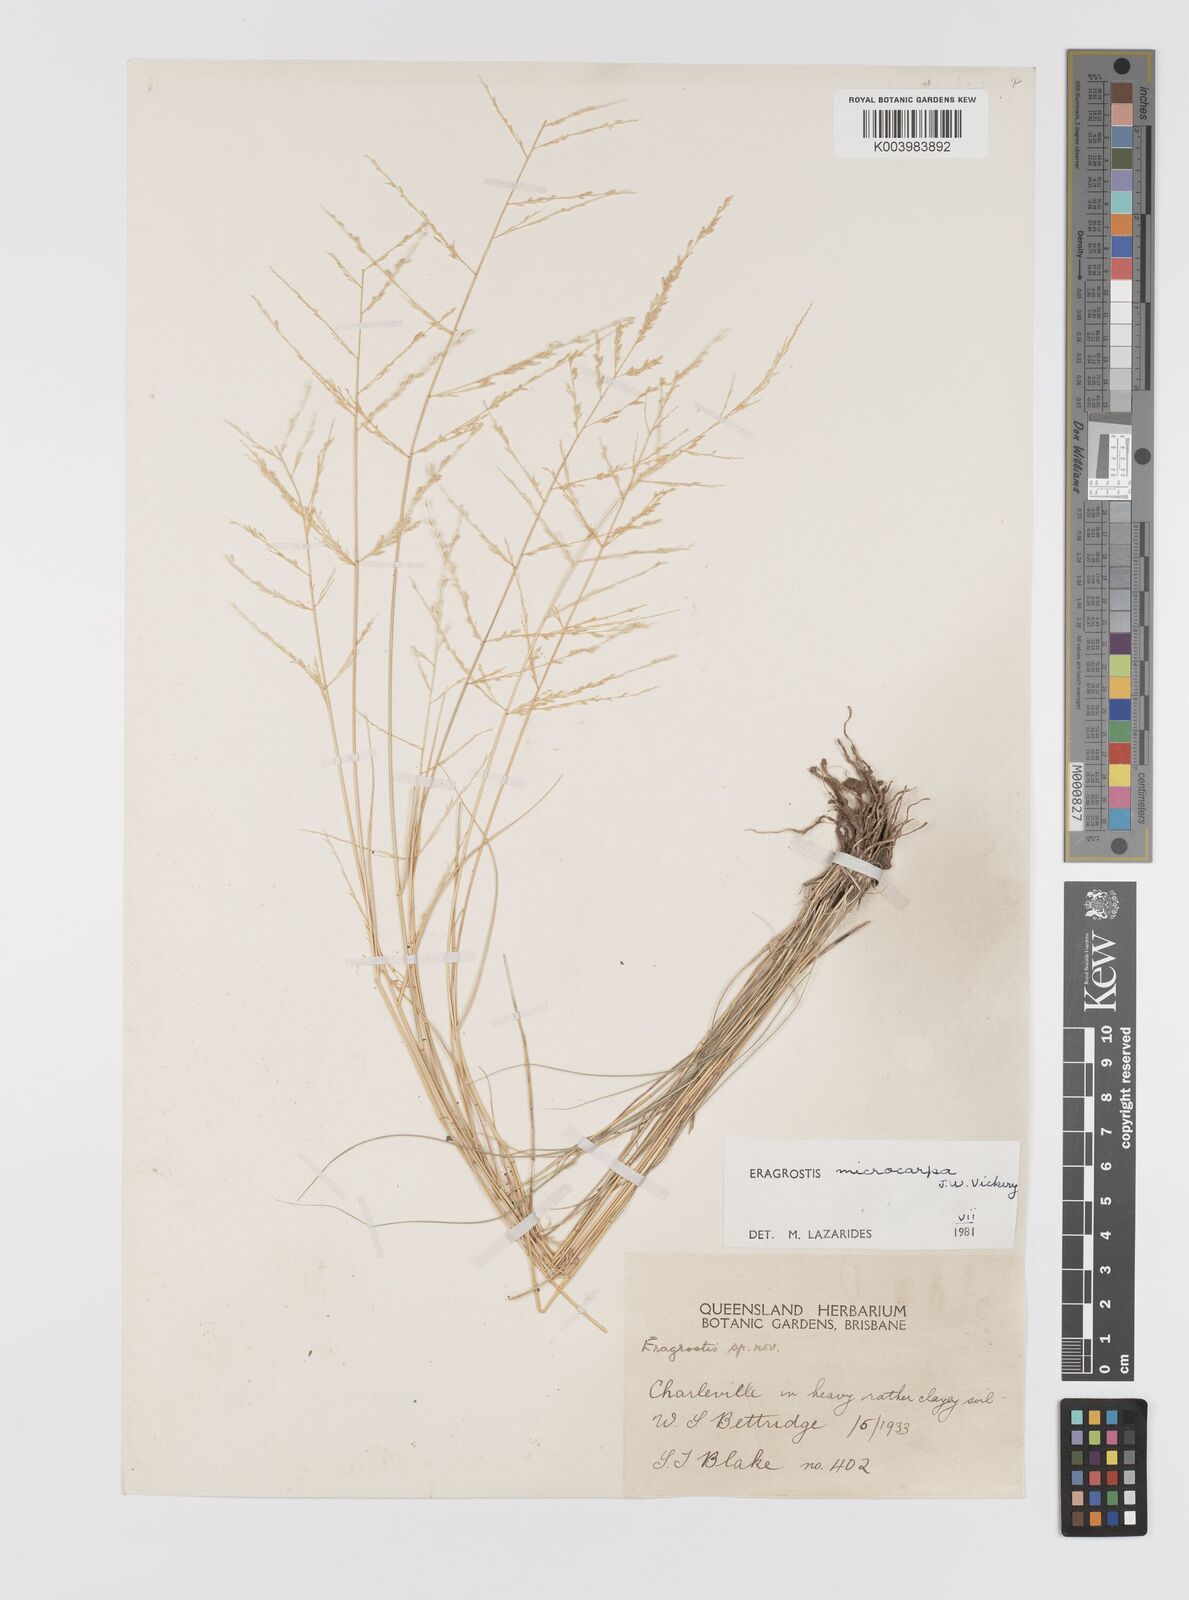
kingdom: Plantae
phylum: Tracheophyta
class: Liliopsida
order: Poales
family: Poaceae
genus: Eragrostis
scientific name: Eragrostis microcarpa
